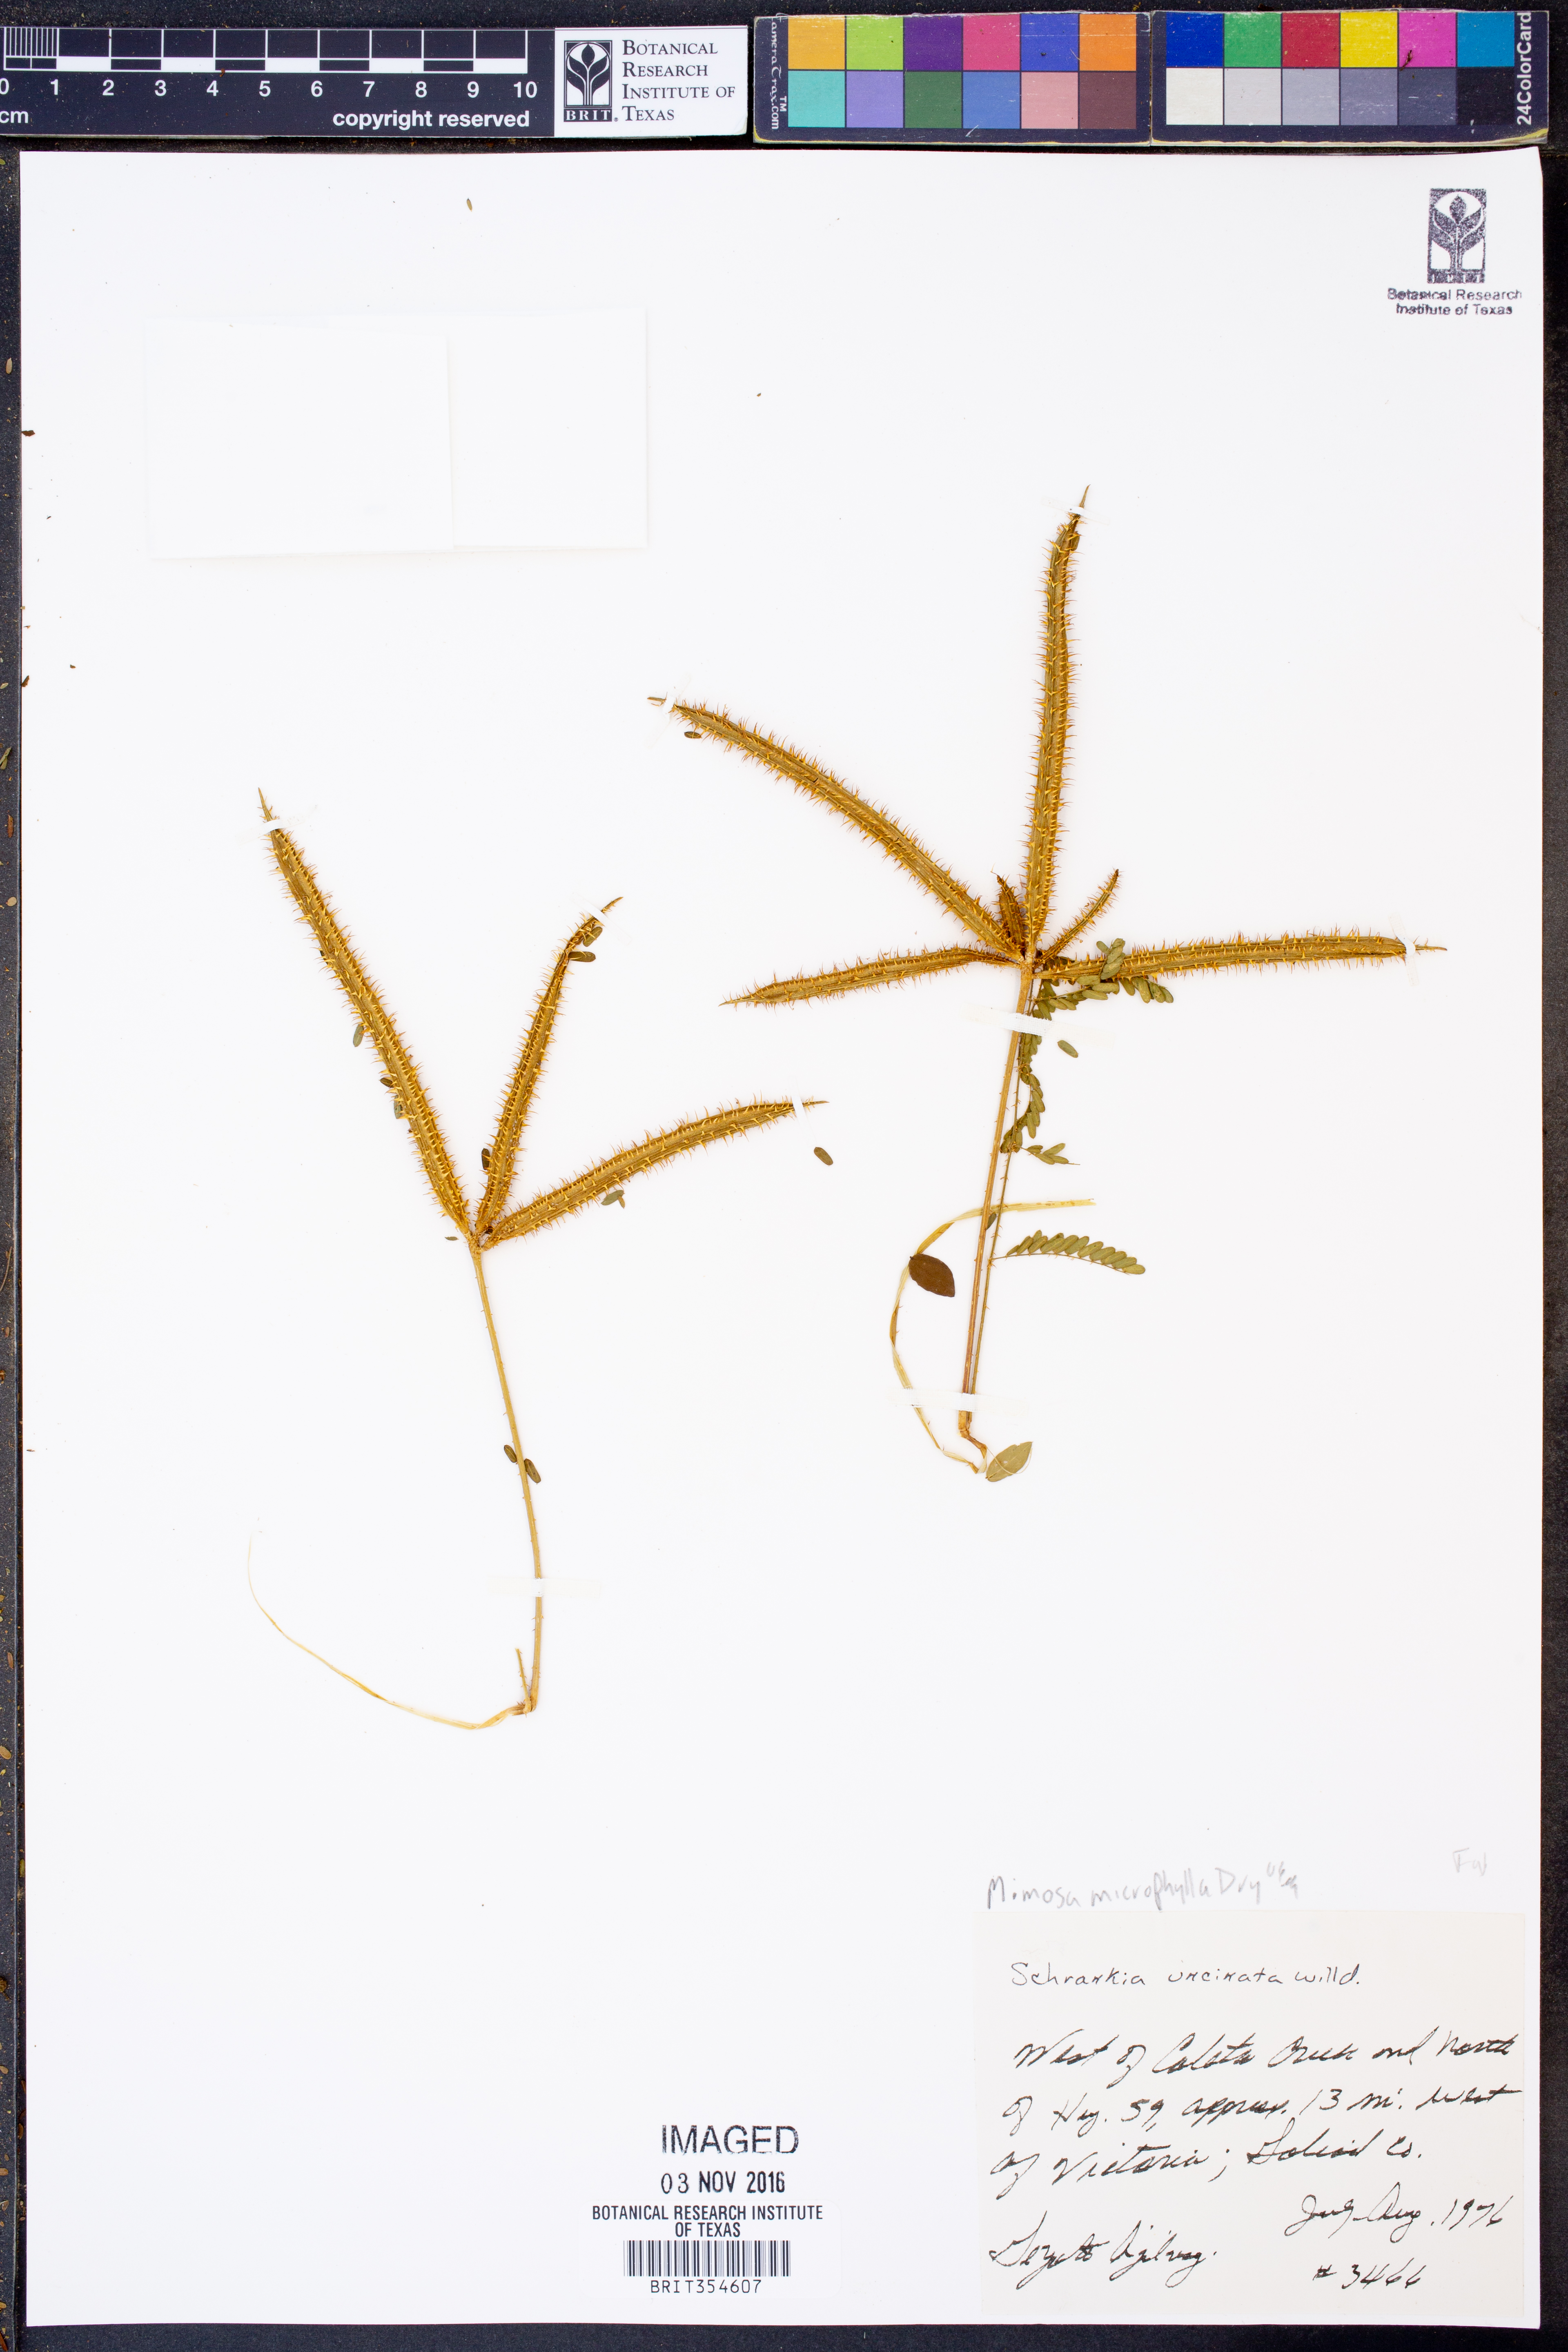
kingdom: Plantae
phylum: Tracheophyta
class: Magnoliopsida
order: Fabales
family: Fabaceae
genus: Mimosa
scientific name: Mimosa quadrivalvis
